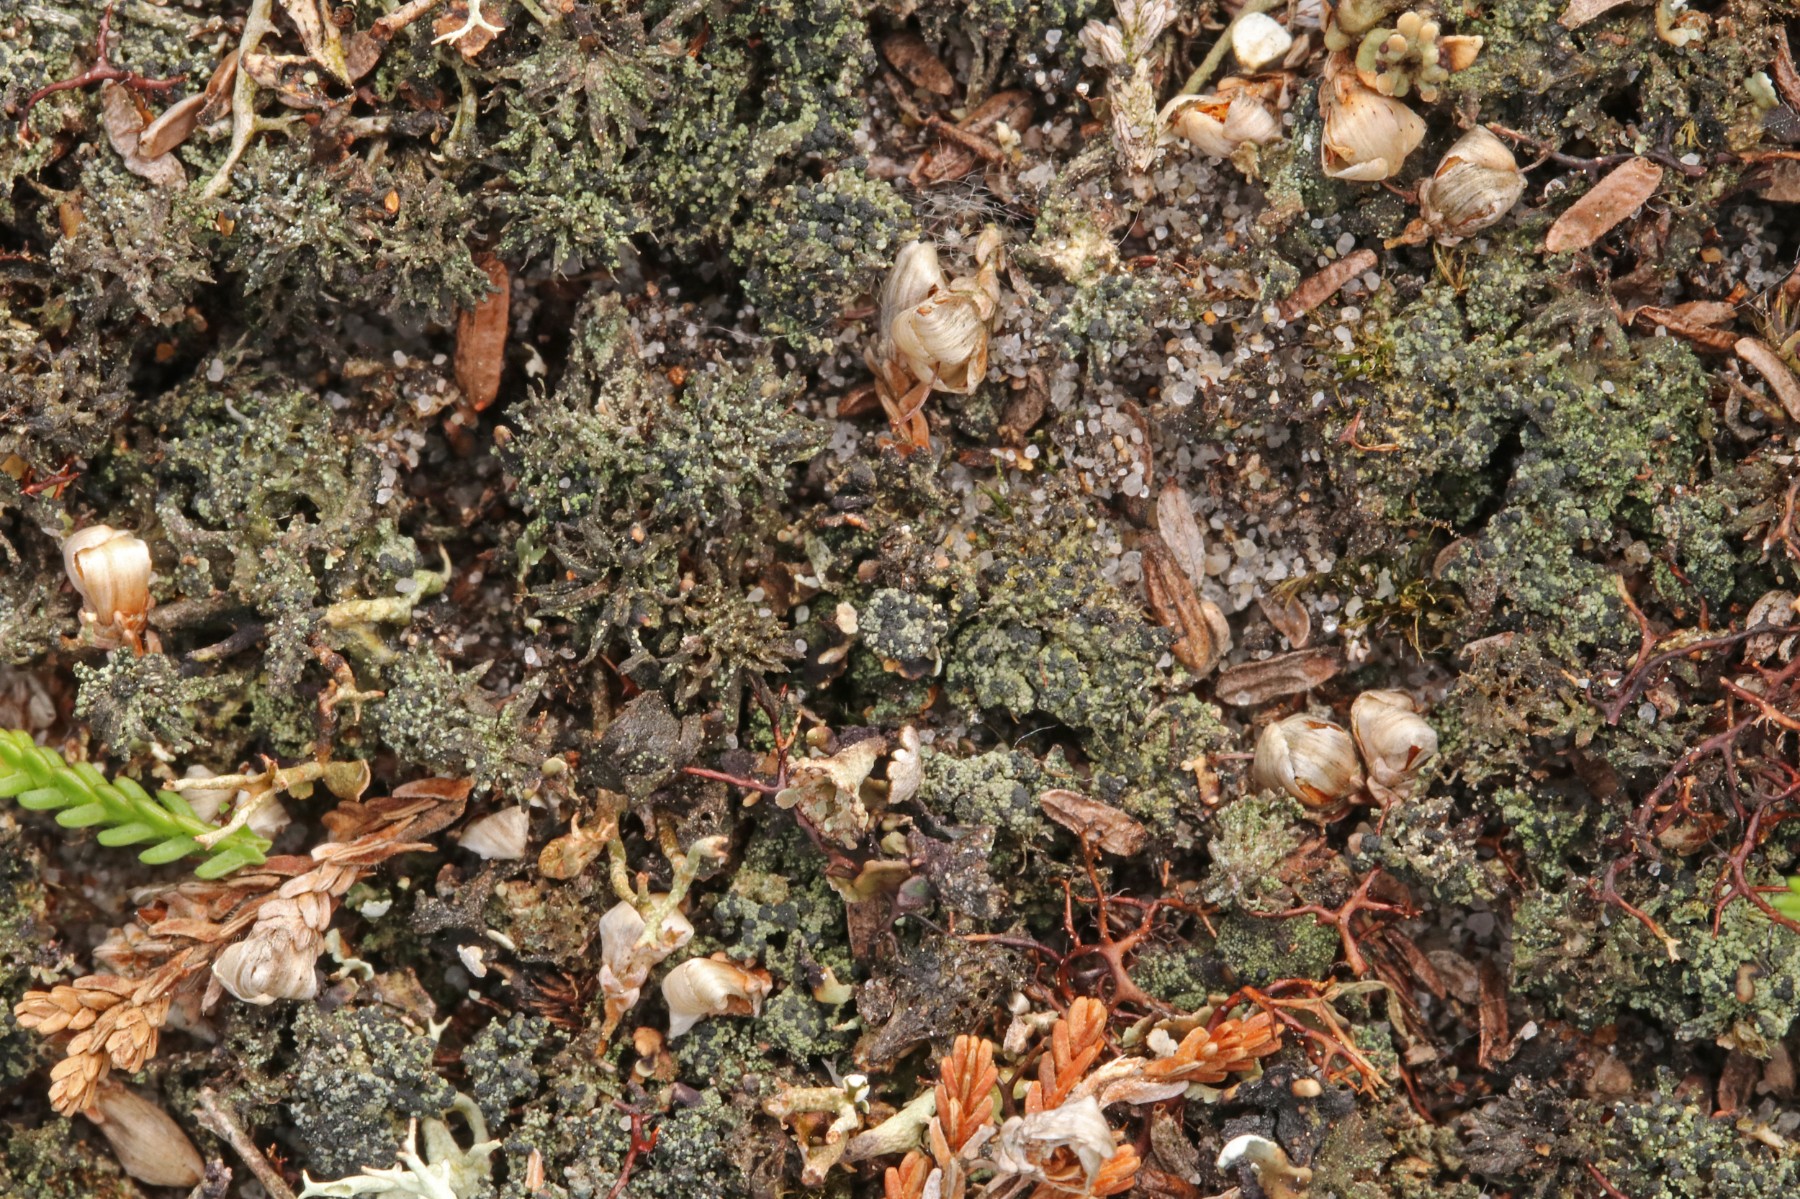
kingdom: Fungi
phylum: Ascomycota
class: Lecanoromycetes
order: Lecanorales
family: Byssolomataceae
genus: Micarea
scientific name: Micarea lignaria
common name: tørve-knaplav
